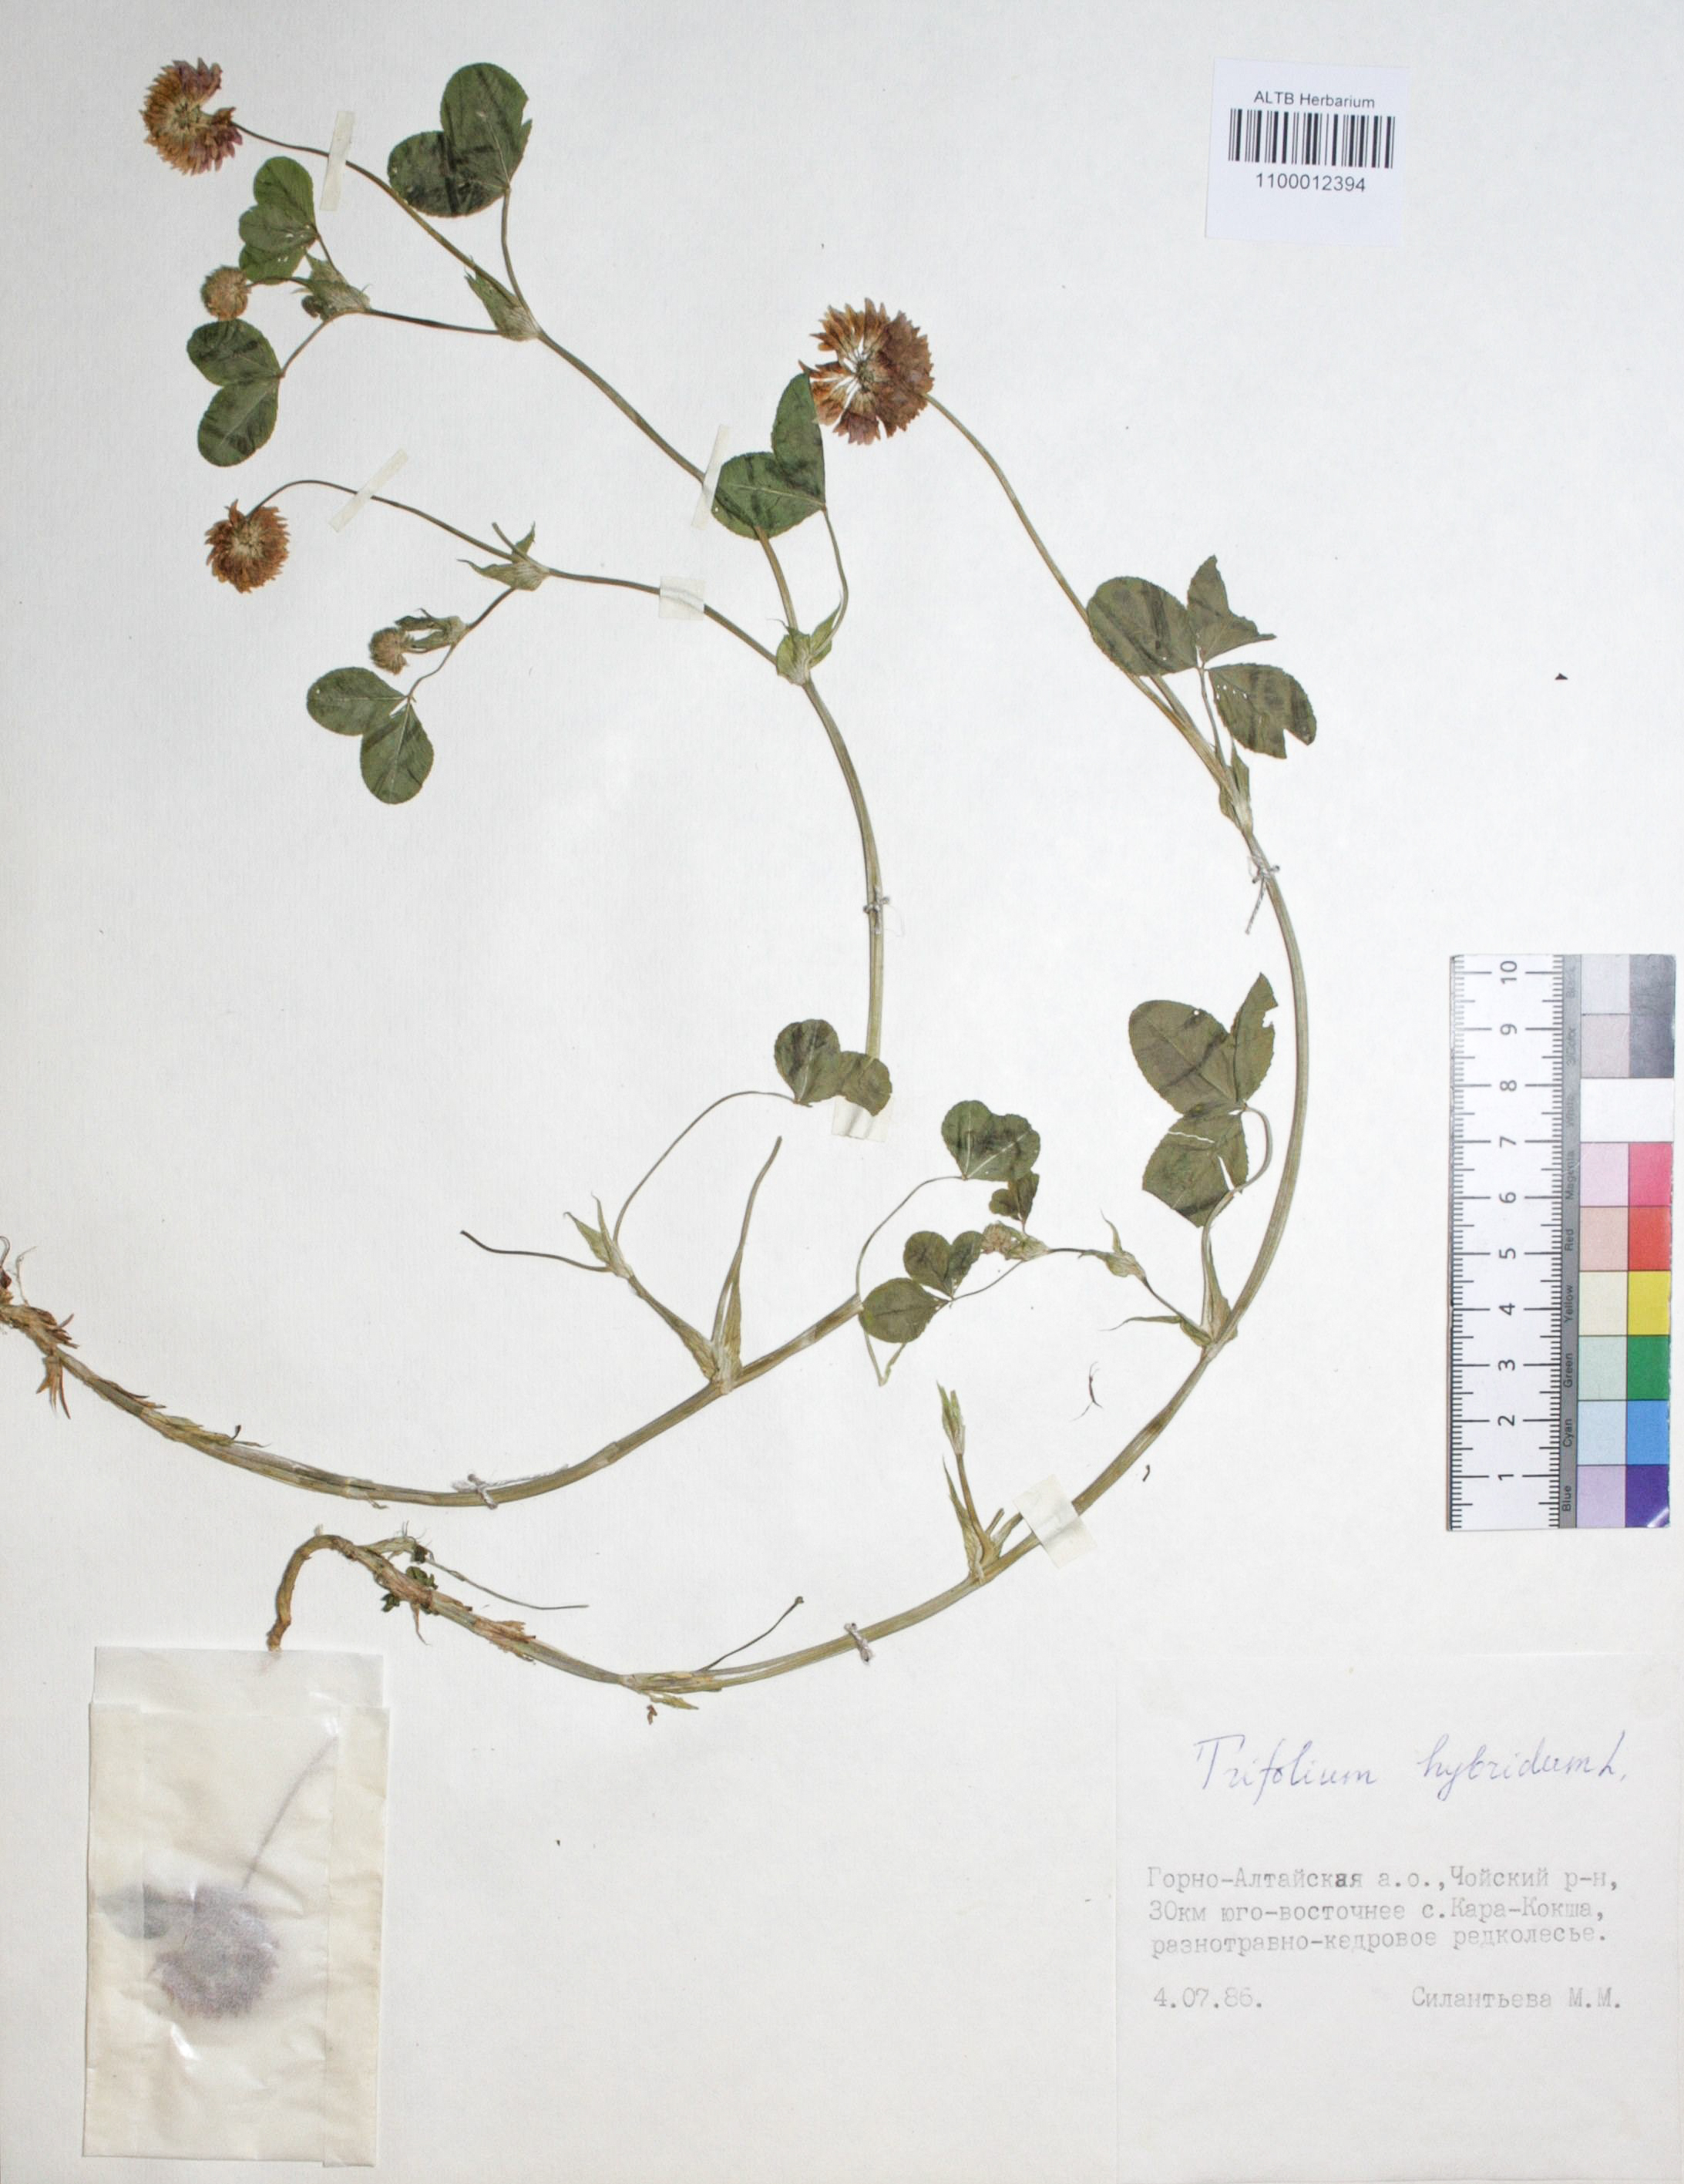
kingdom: Plantae
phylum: Tracheophyta
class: Magnoliopsida
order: Fabales
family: Fabaceae
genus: Trifolium
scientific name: Trifolium hybridum
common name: Alsike clover
